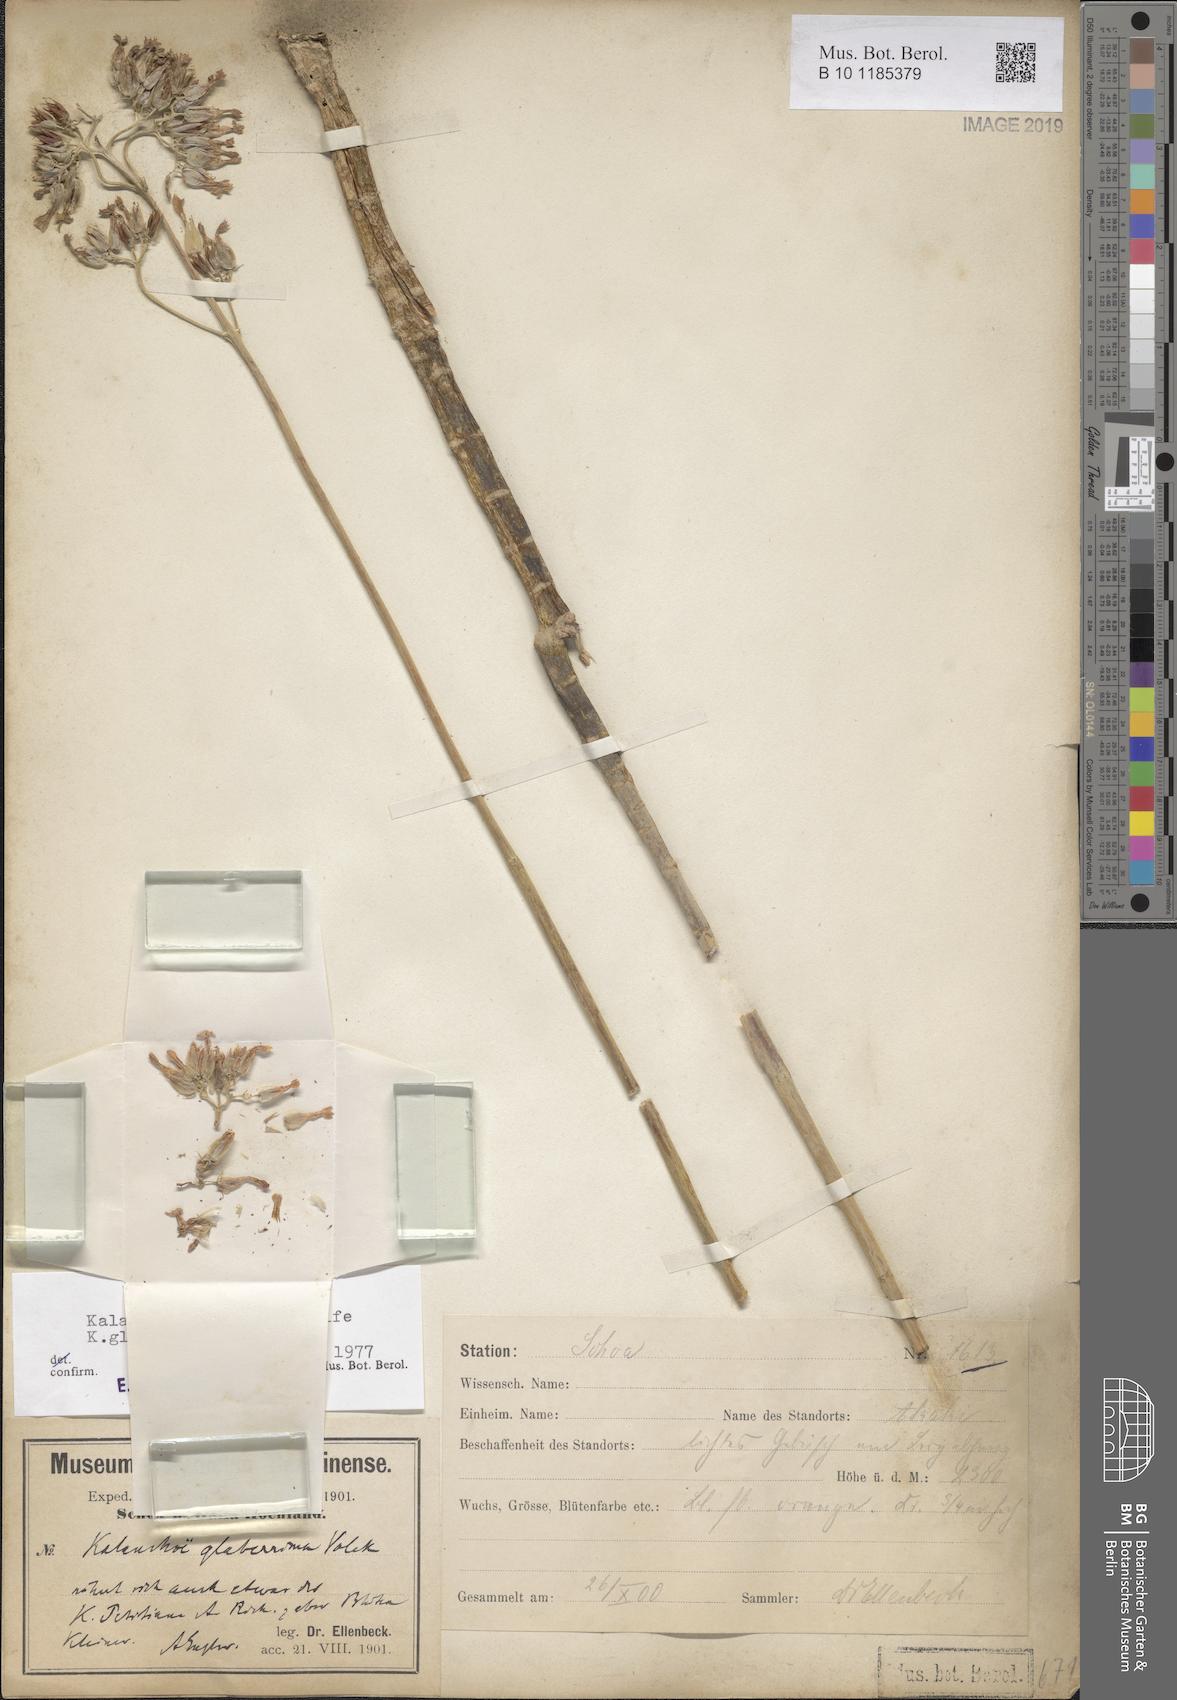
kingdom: Plantae
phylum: Tracheophyta
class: Magnoliopsida
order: Saxifragales
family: Crassulaceae
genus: Kalanchoe
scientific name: Kalanchoe densiflora
